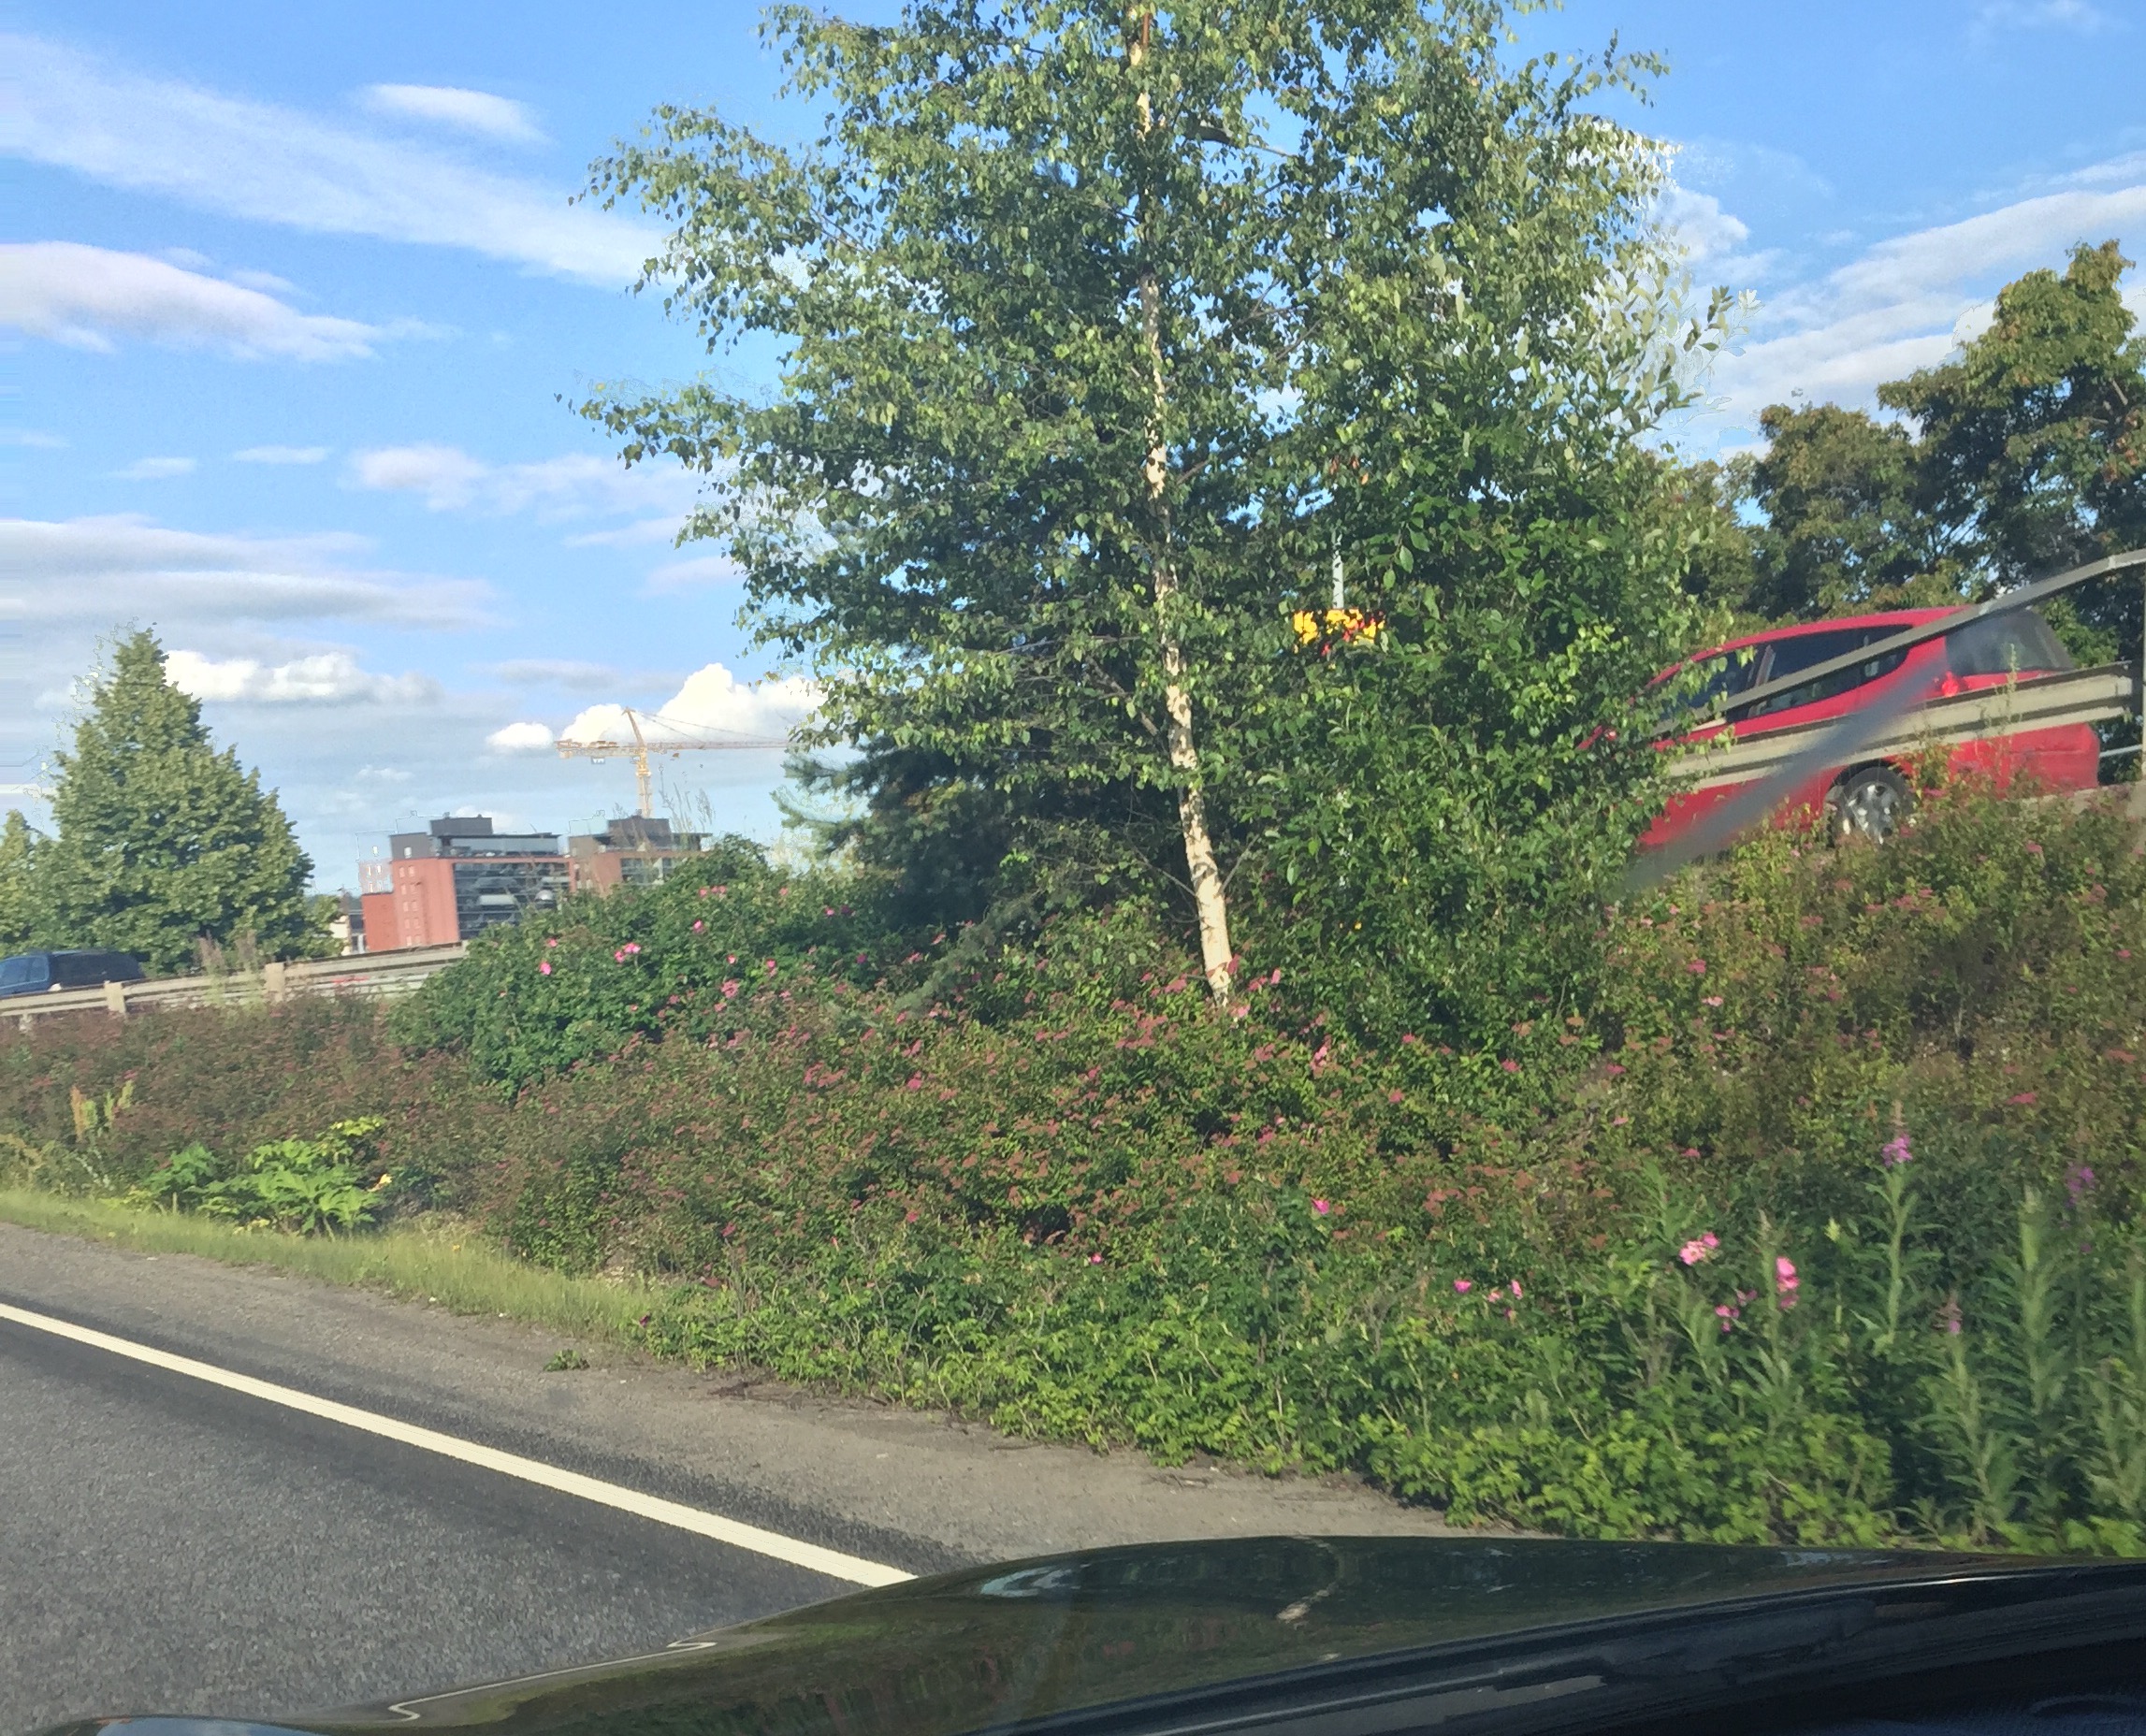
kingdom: Plantae
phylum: Tracheophyta
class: Magnoliopsida
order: Apiales
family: Apiaceae
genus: Heracleum
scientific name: Heracleum
